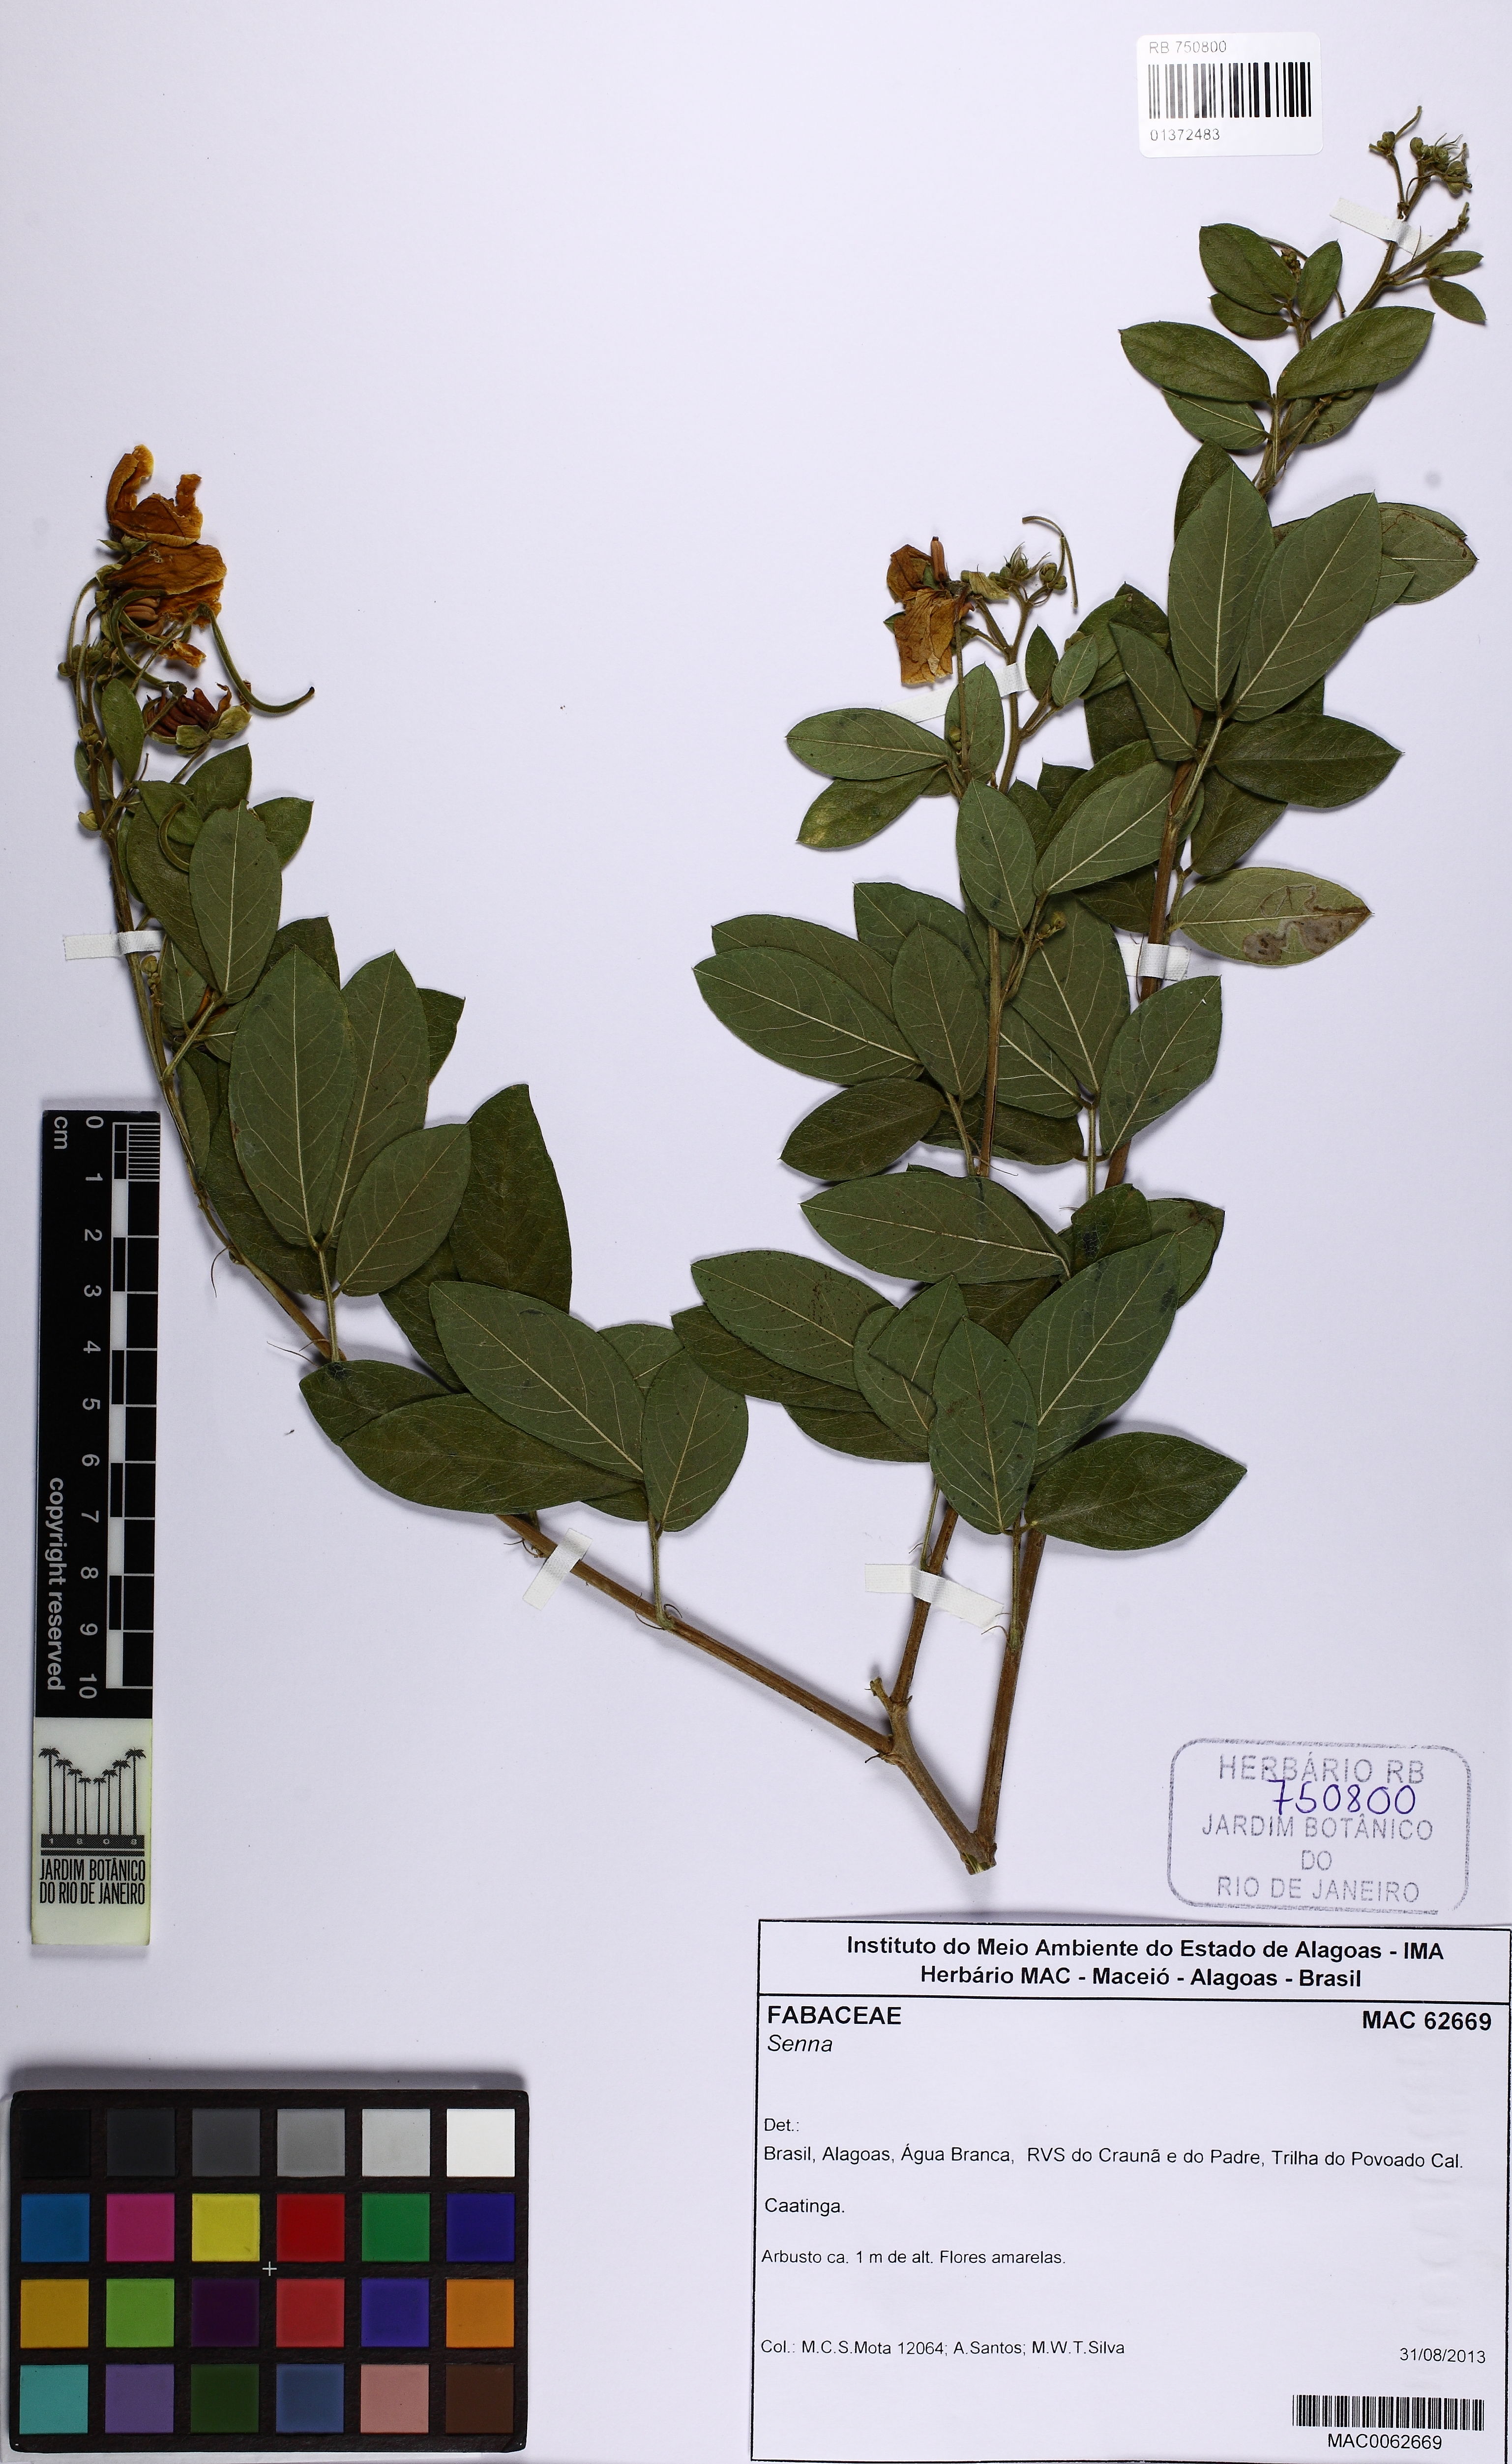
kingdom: Plantae
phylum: Tracheophyta
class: Magnoliopsida
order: Fabales
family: Fabaceae
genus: Senna
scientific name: Senna
